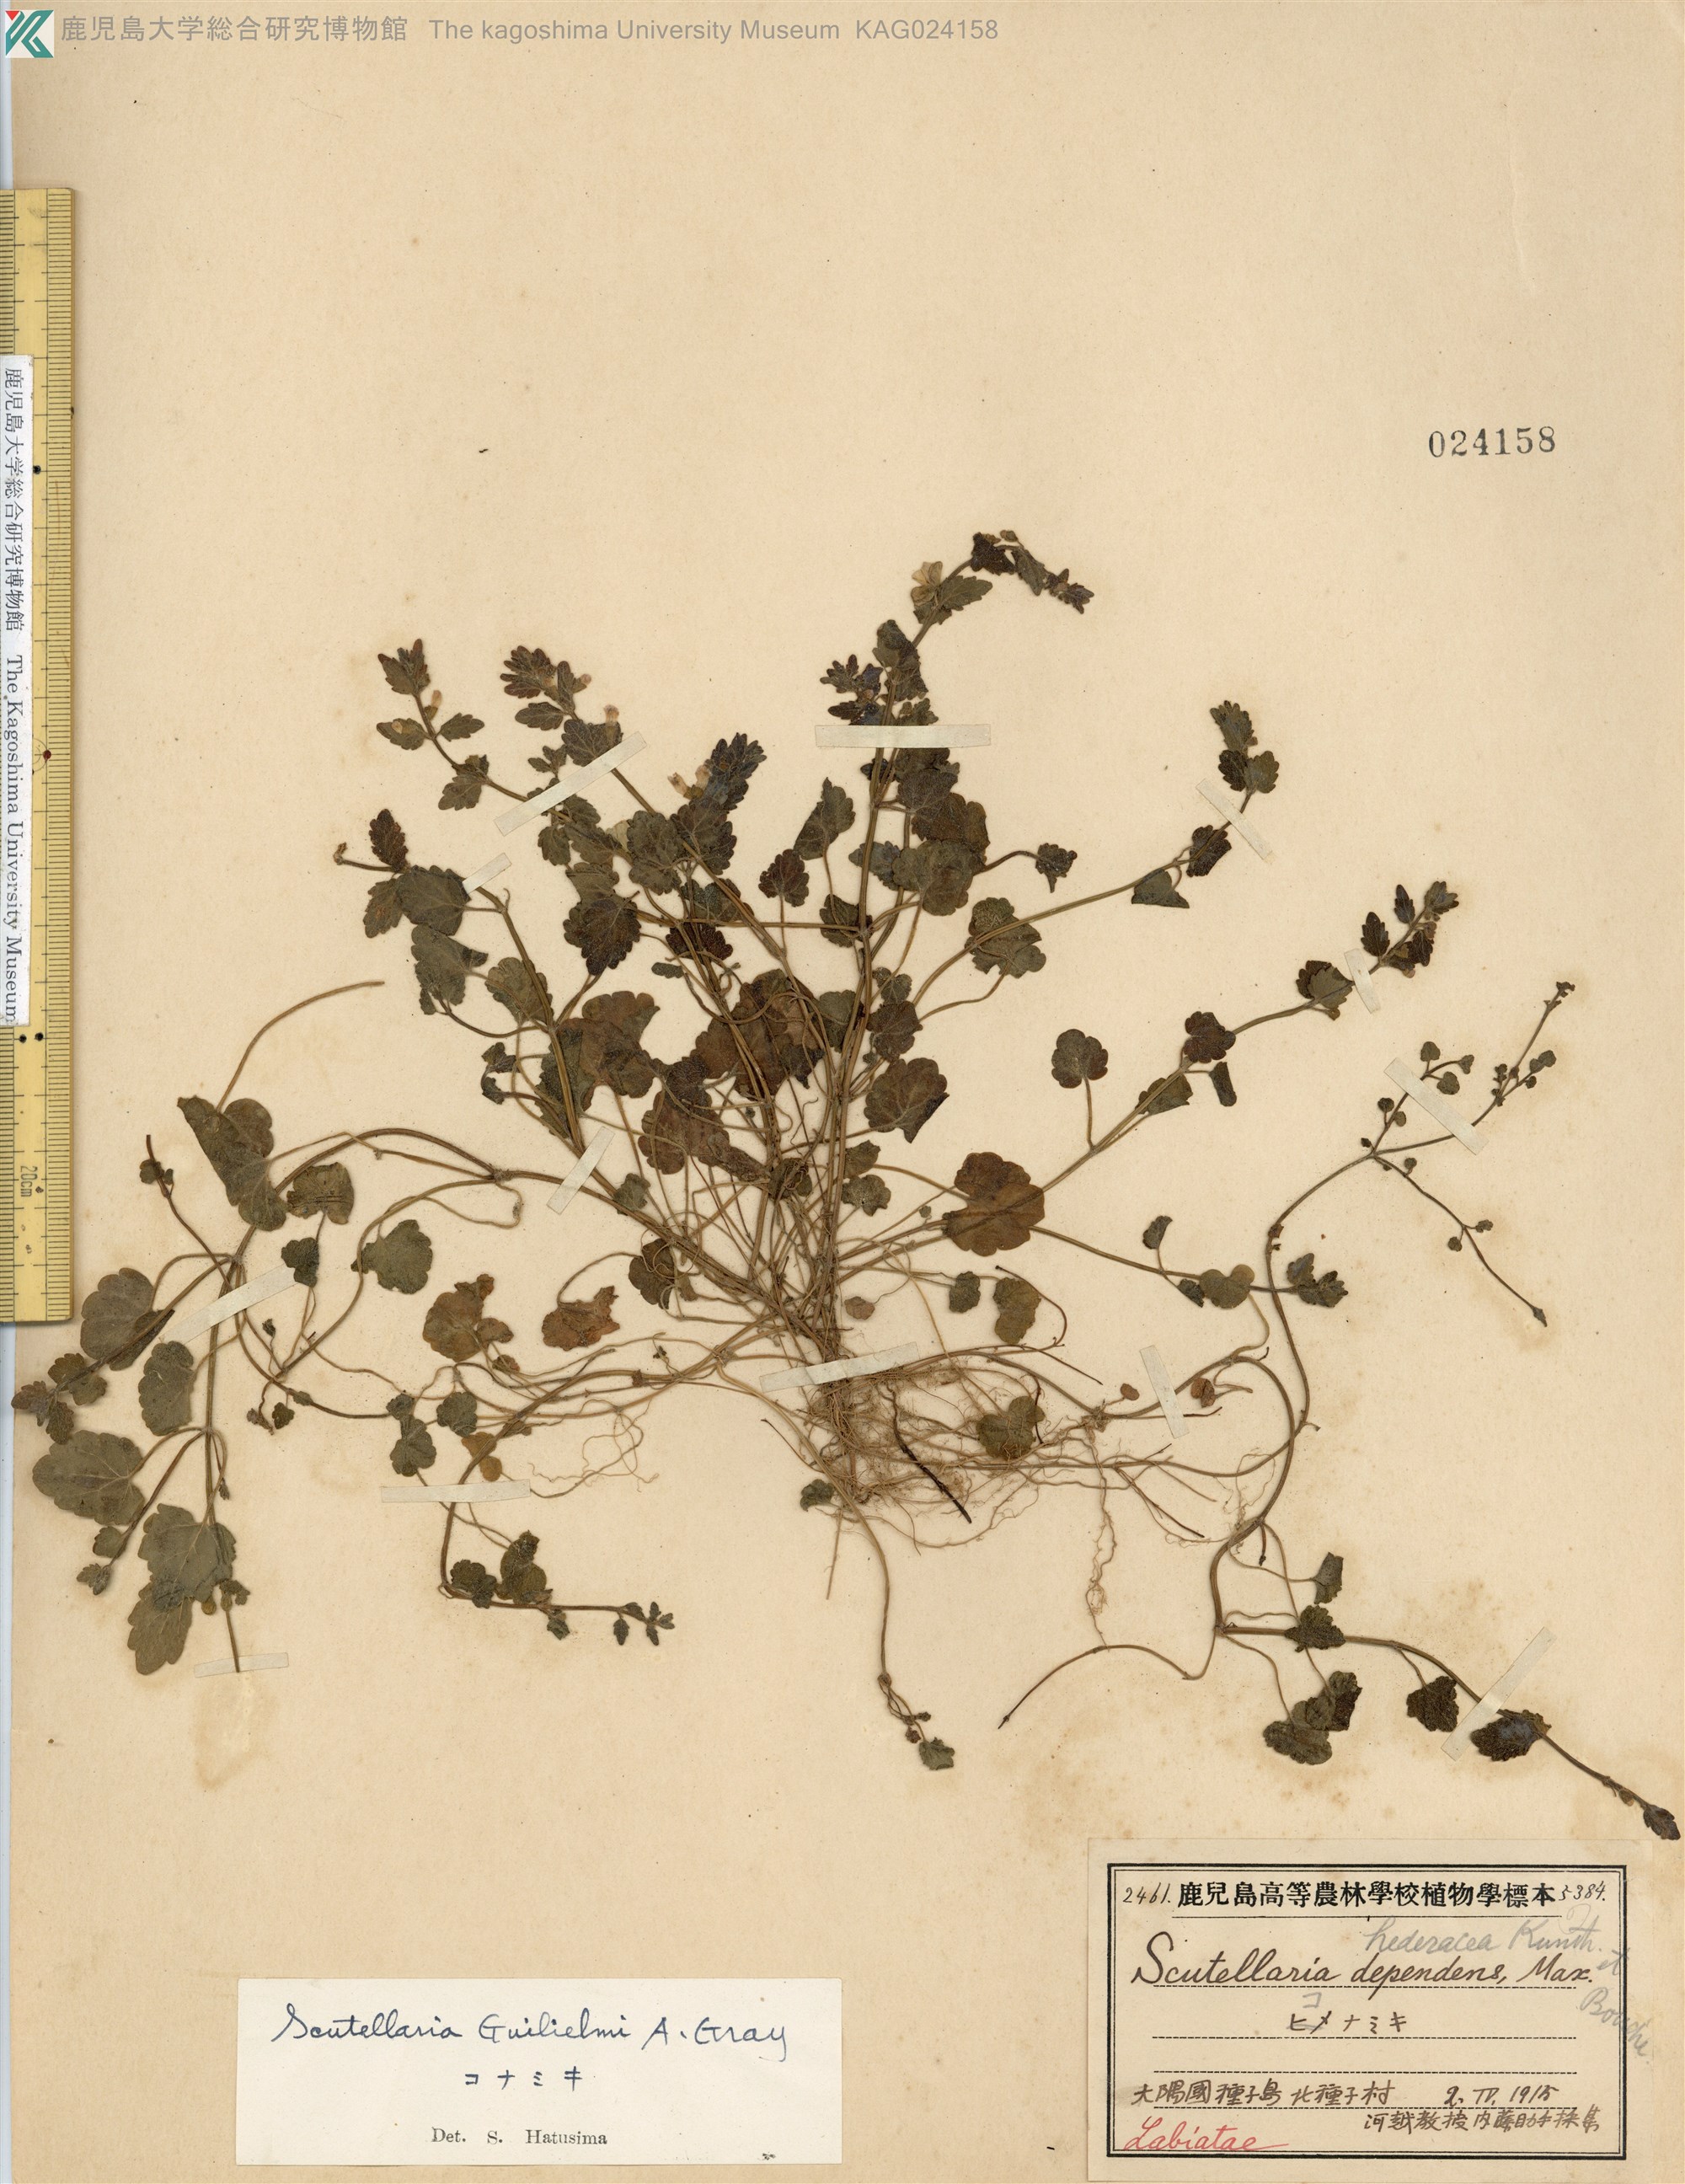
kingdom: Plantae
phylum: Tracheophyta
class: Magnoliopsida
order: Lamiales
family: Lamiaceae
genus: Scutellaria
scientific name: Scutellaria guilielmi
